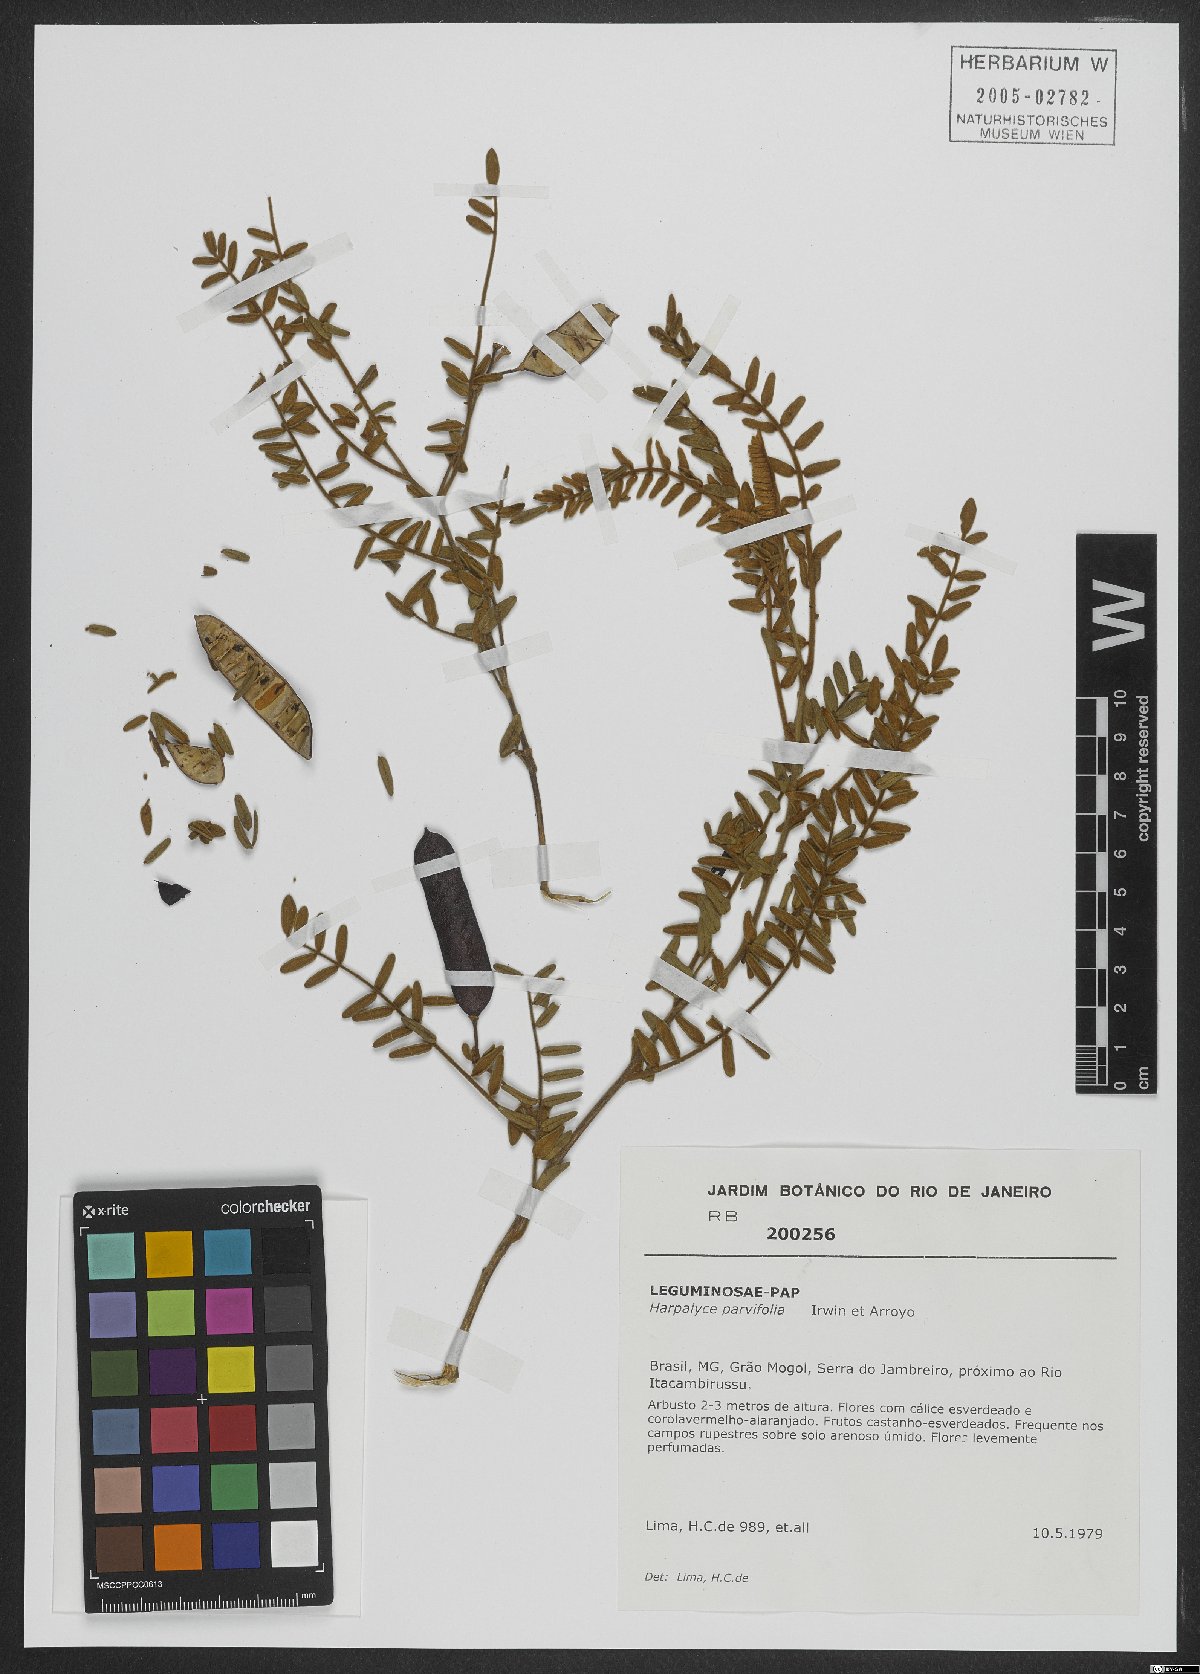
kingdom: Plantae
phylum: Tracheophyta
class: Magnoliopsida
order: Fabales
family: Fabaceae
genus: Harpalyce
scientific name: Harpalyce parvifolia
